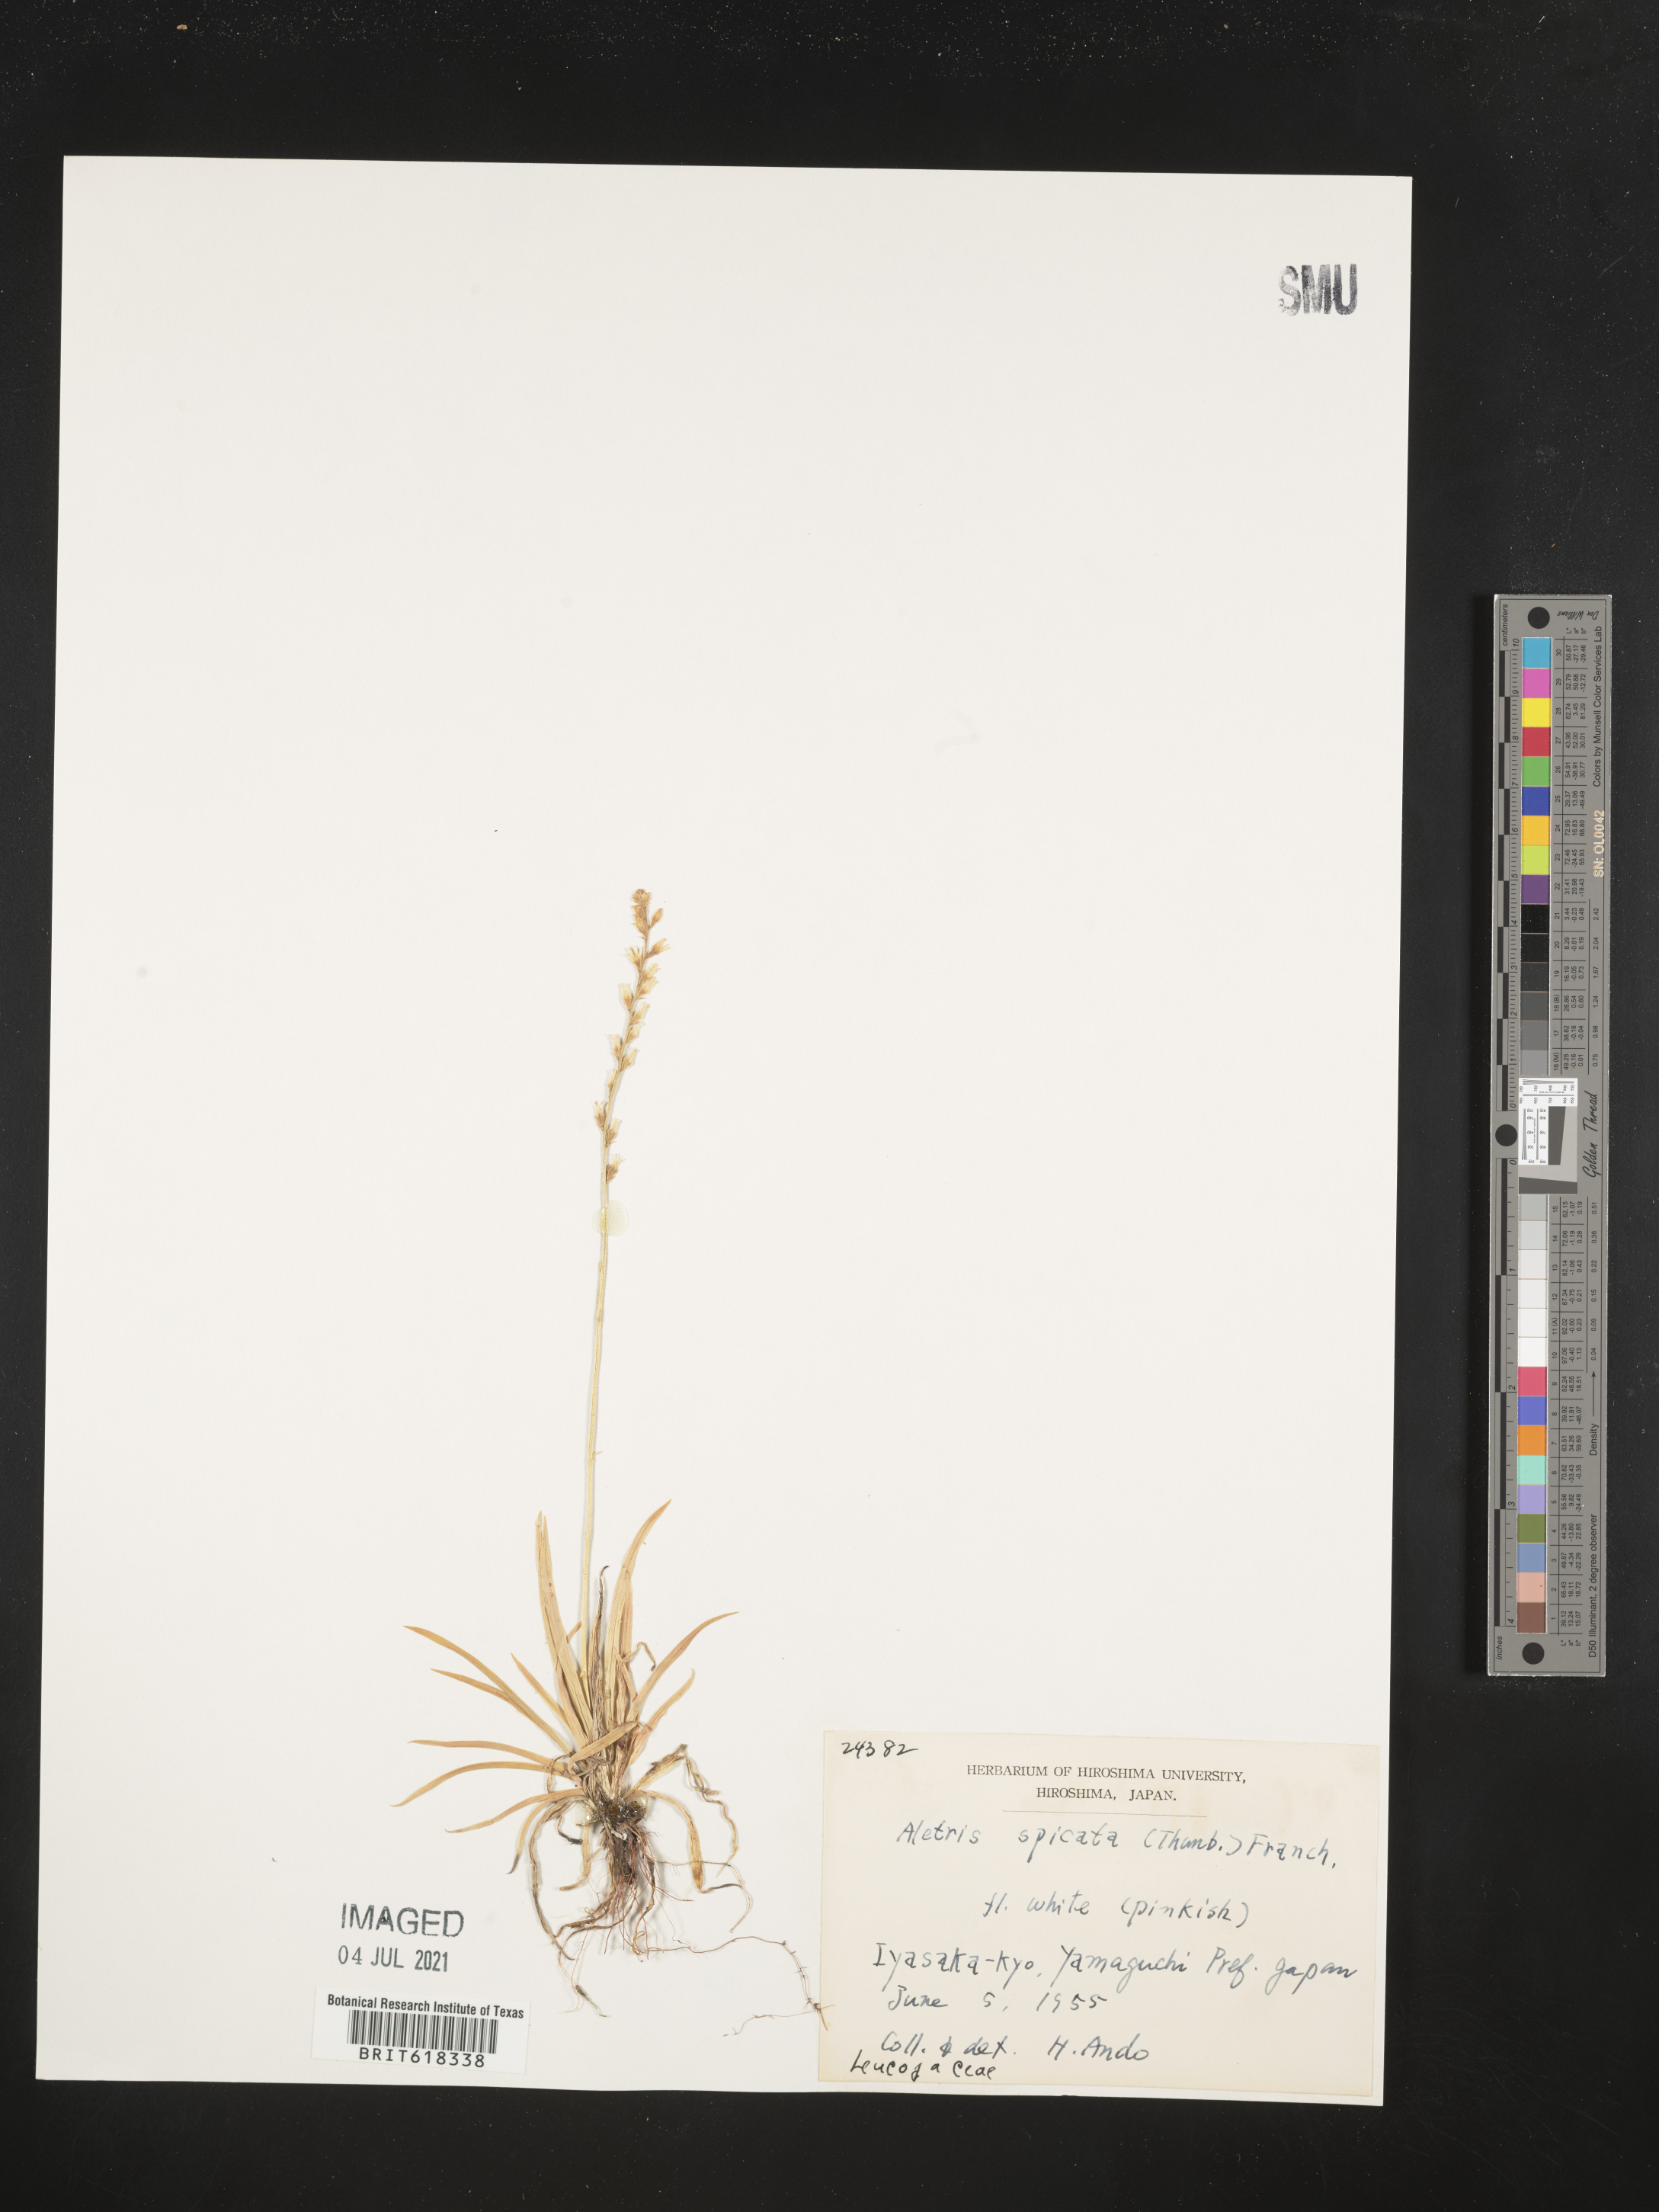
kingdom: Plantae
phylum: Tracheophyta
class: Liliopsida
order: Dioscoreales
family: Nartheciaceae
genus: Aletris
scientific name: Aletris spicata
